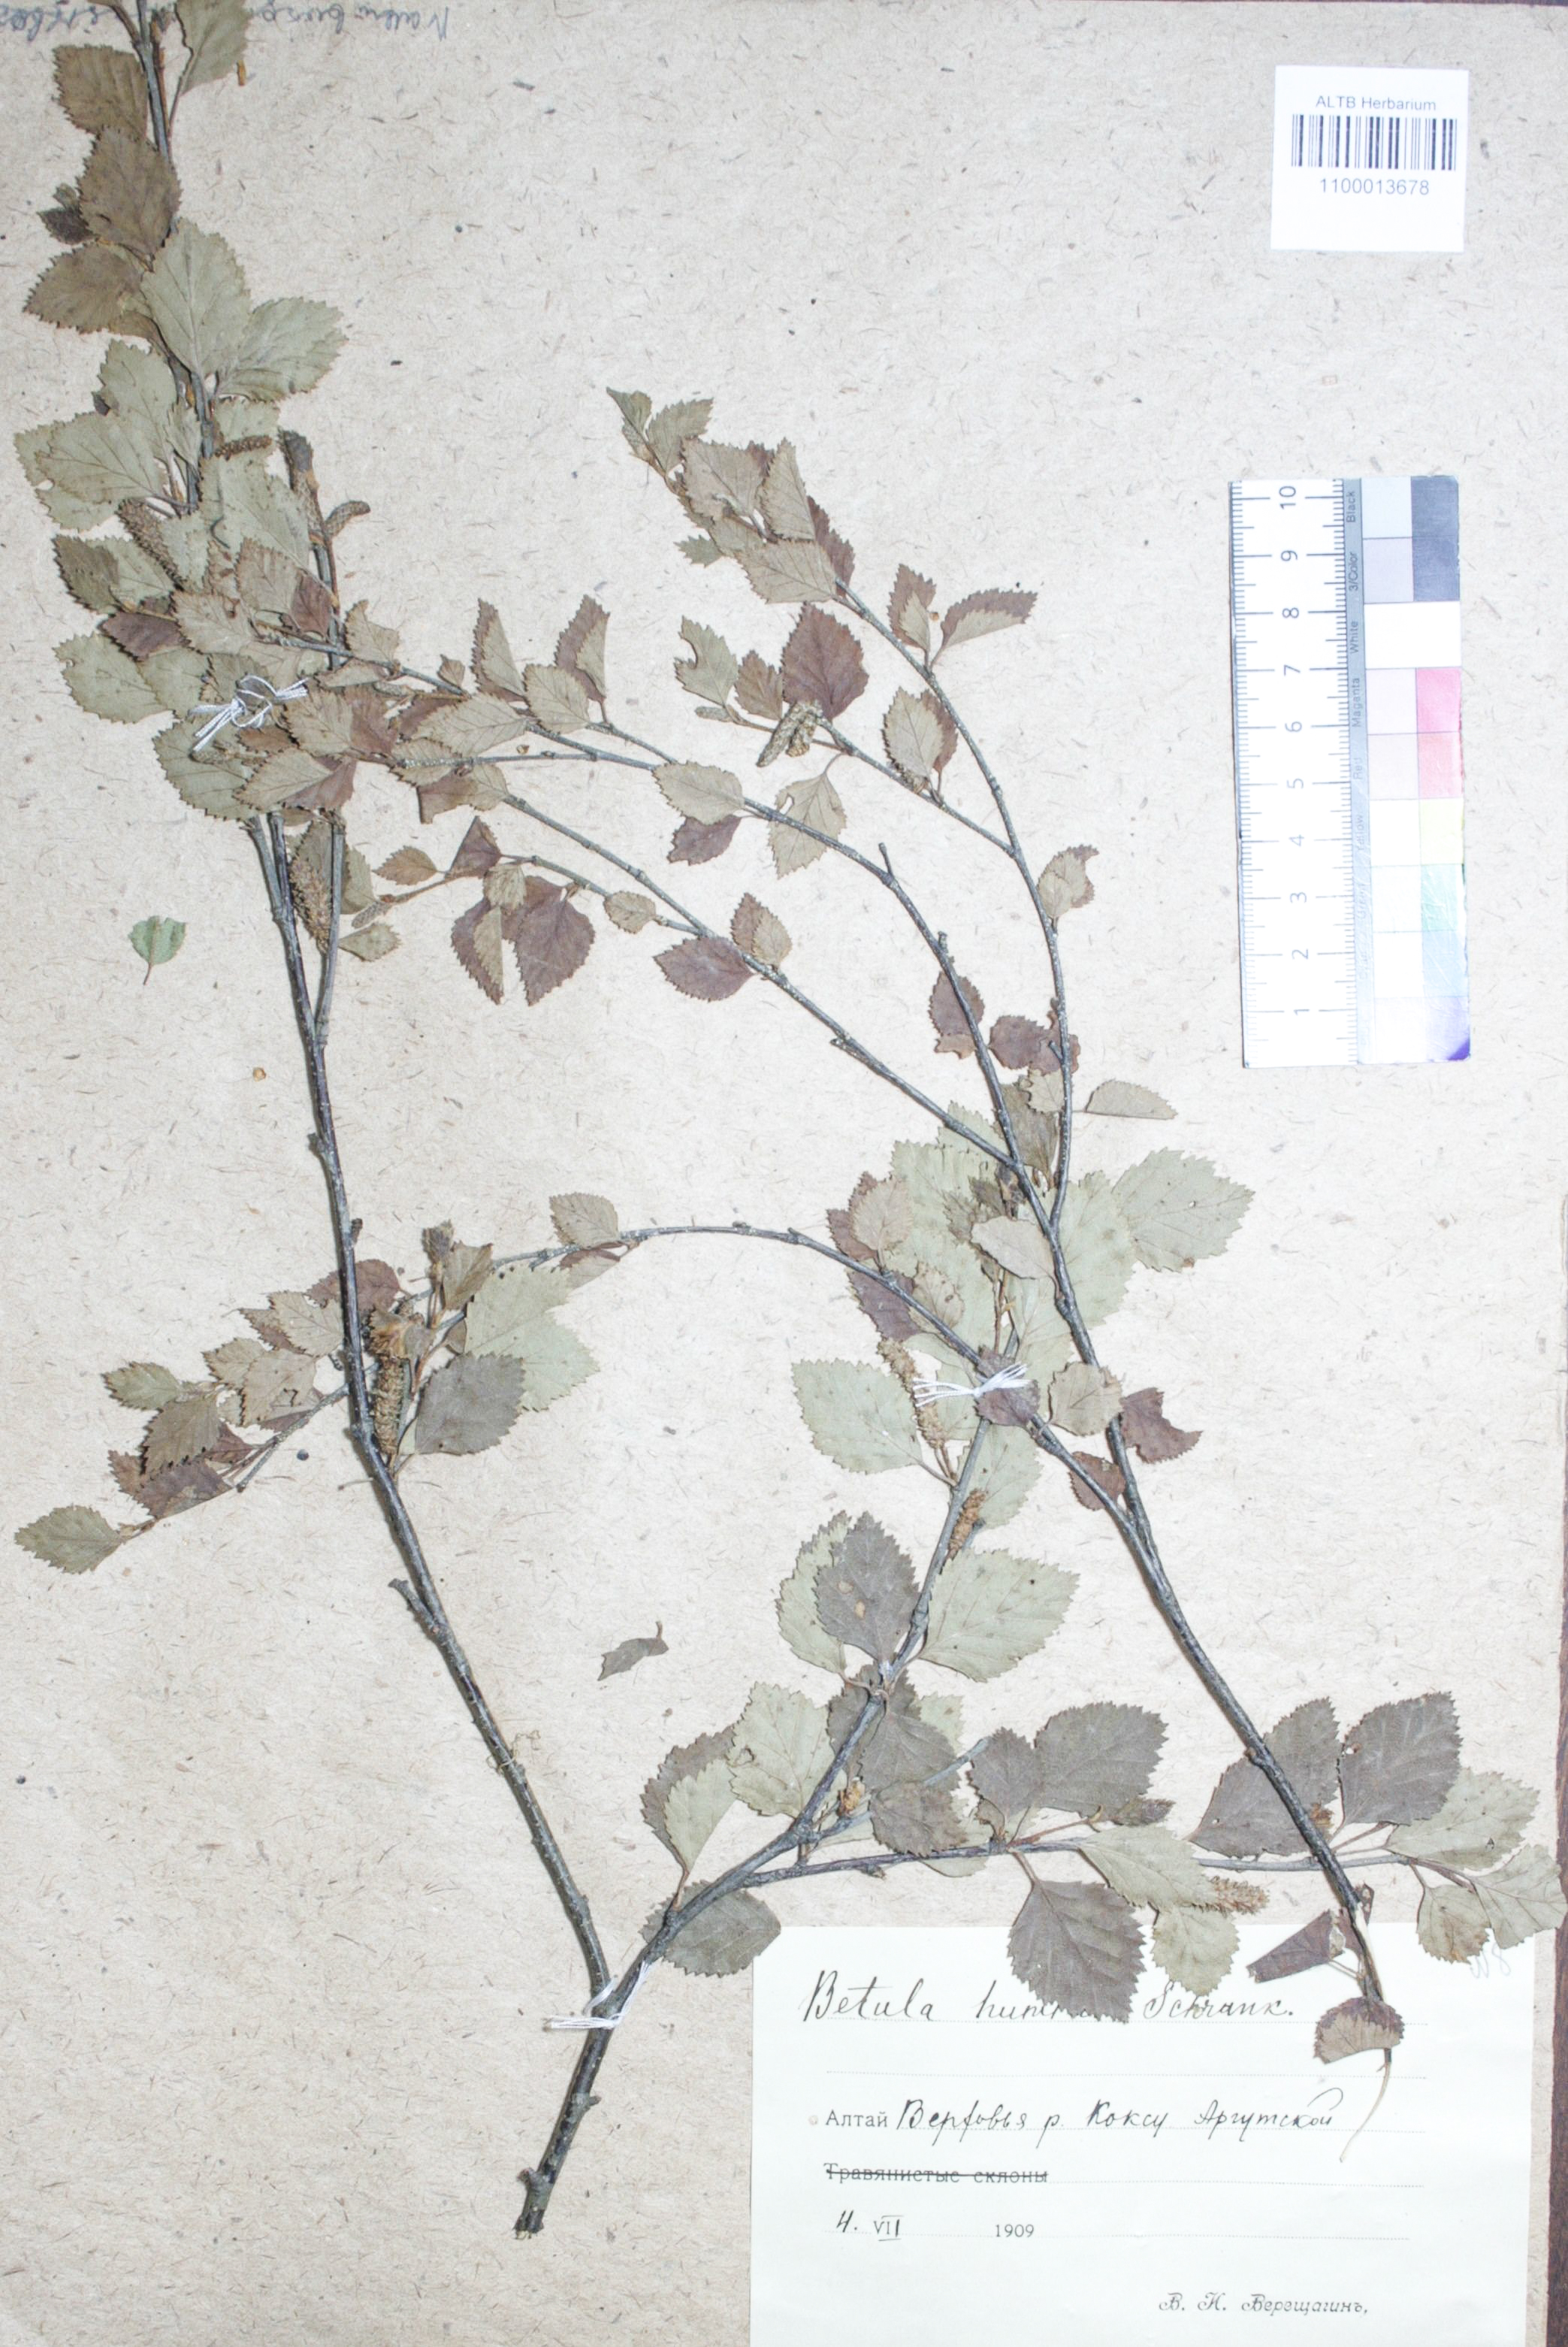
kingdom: Plantae
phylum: Tracheophyta
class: Magnoliopsida
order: Fagales
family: Betulaceae
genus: Betula
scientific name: Betula humilis
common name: Shrubby birch
